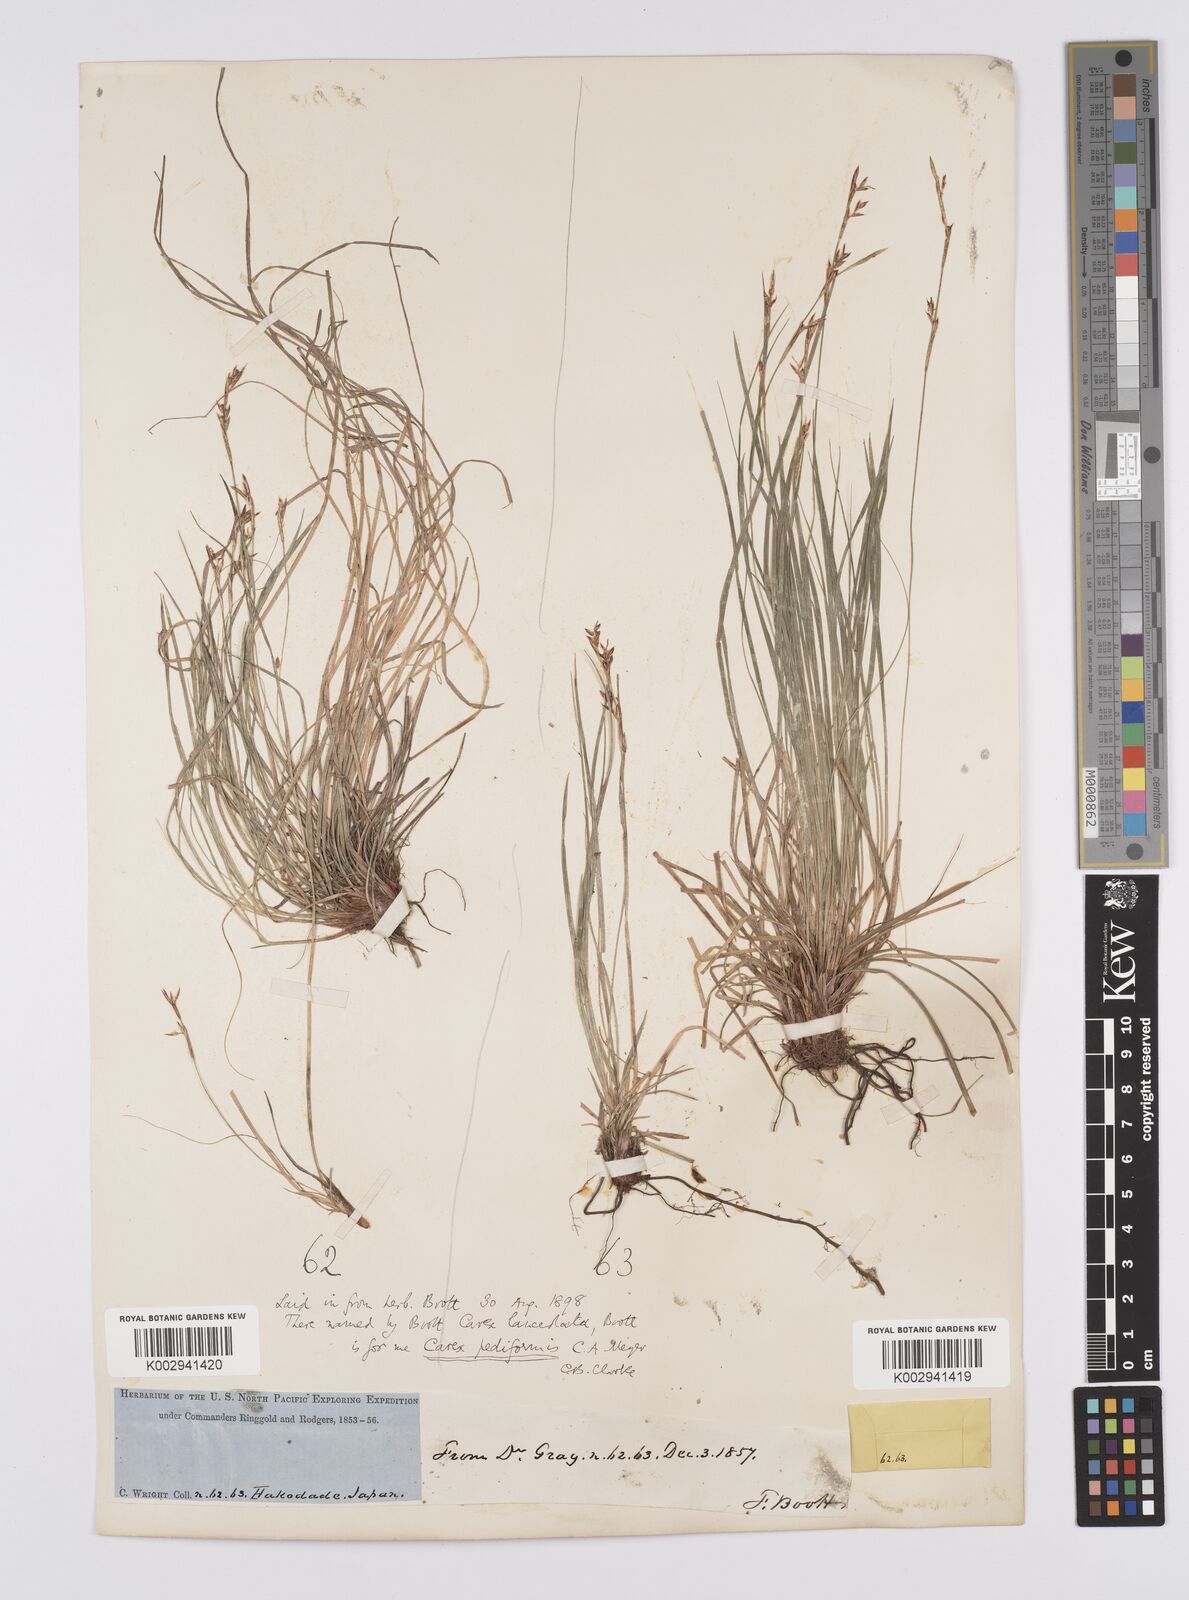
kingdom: Plantae
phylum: Tracheophyta
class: Liliopsida
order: Poales
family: Cyperaceae
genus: Carex
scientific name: Carex lanceolata
